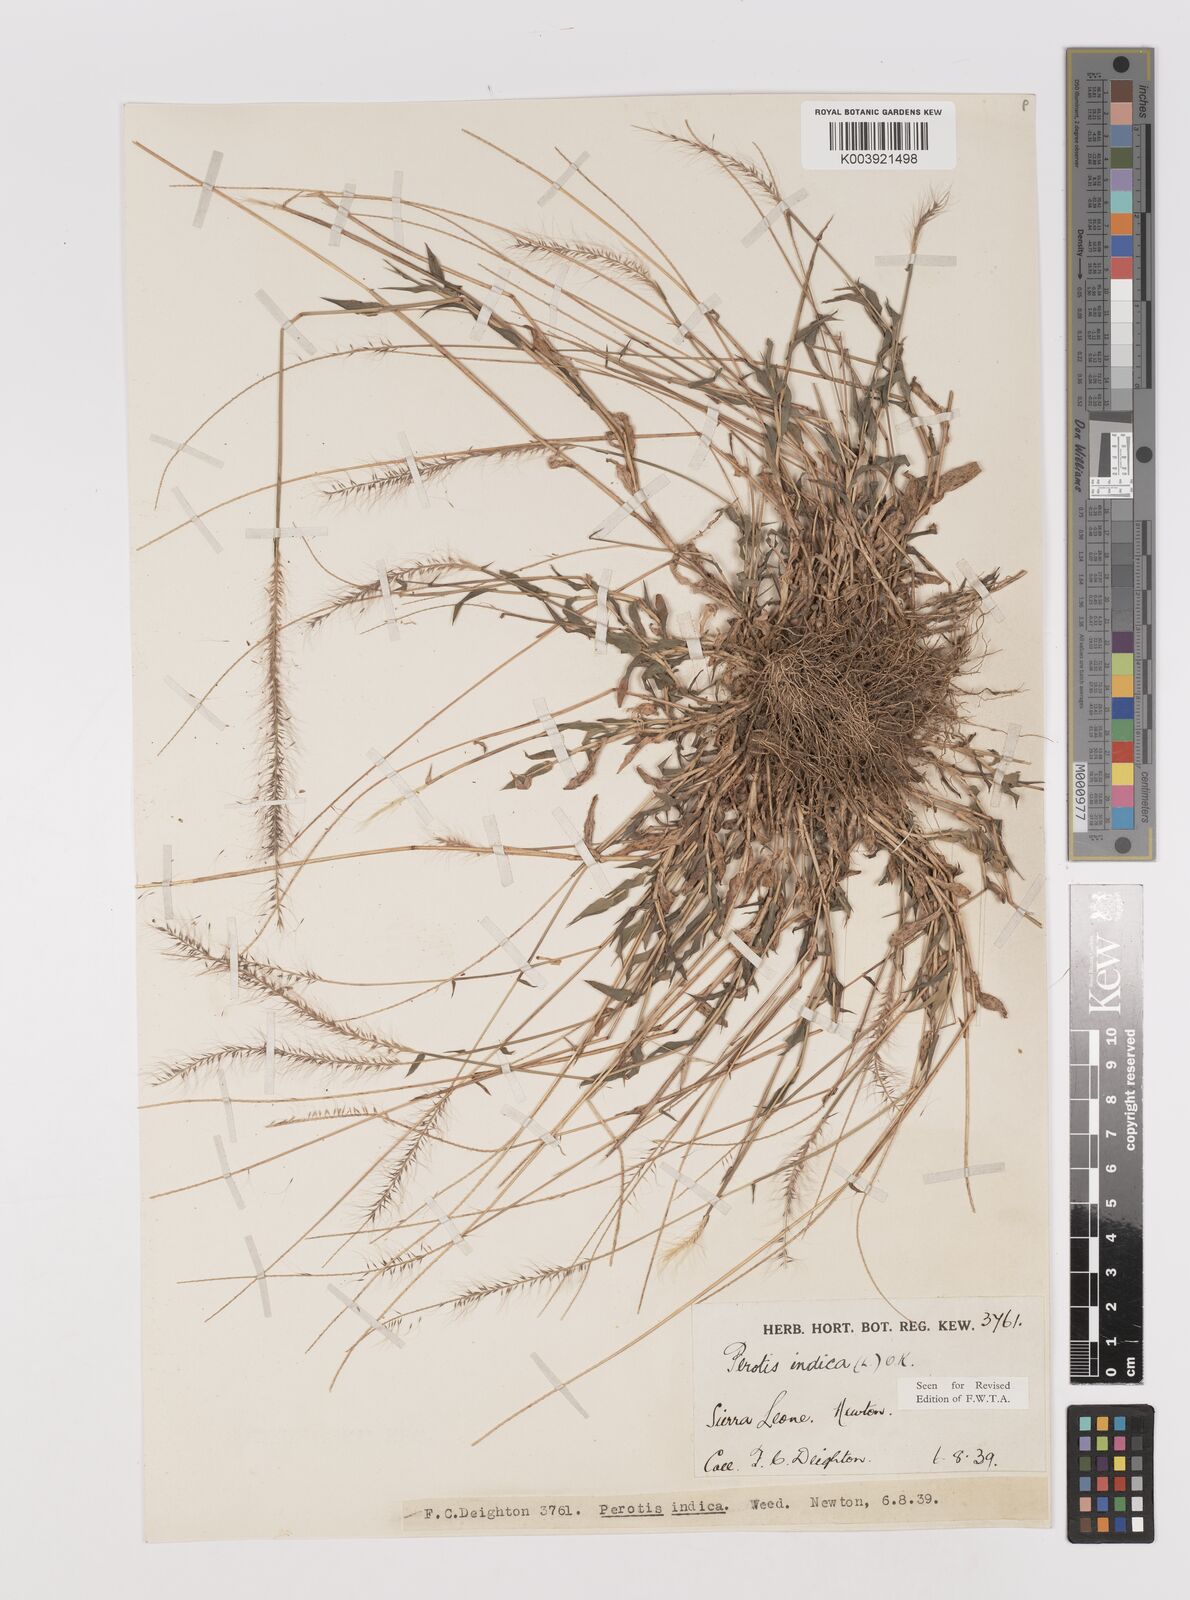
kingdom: Plantae
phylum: Tracheophyta
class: Liliopsida
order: Poales
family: Poaceae
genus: Perotis
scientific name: Perotis indica
